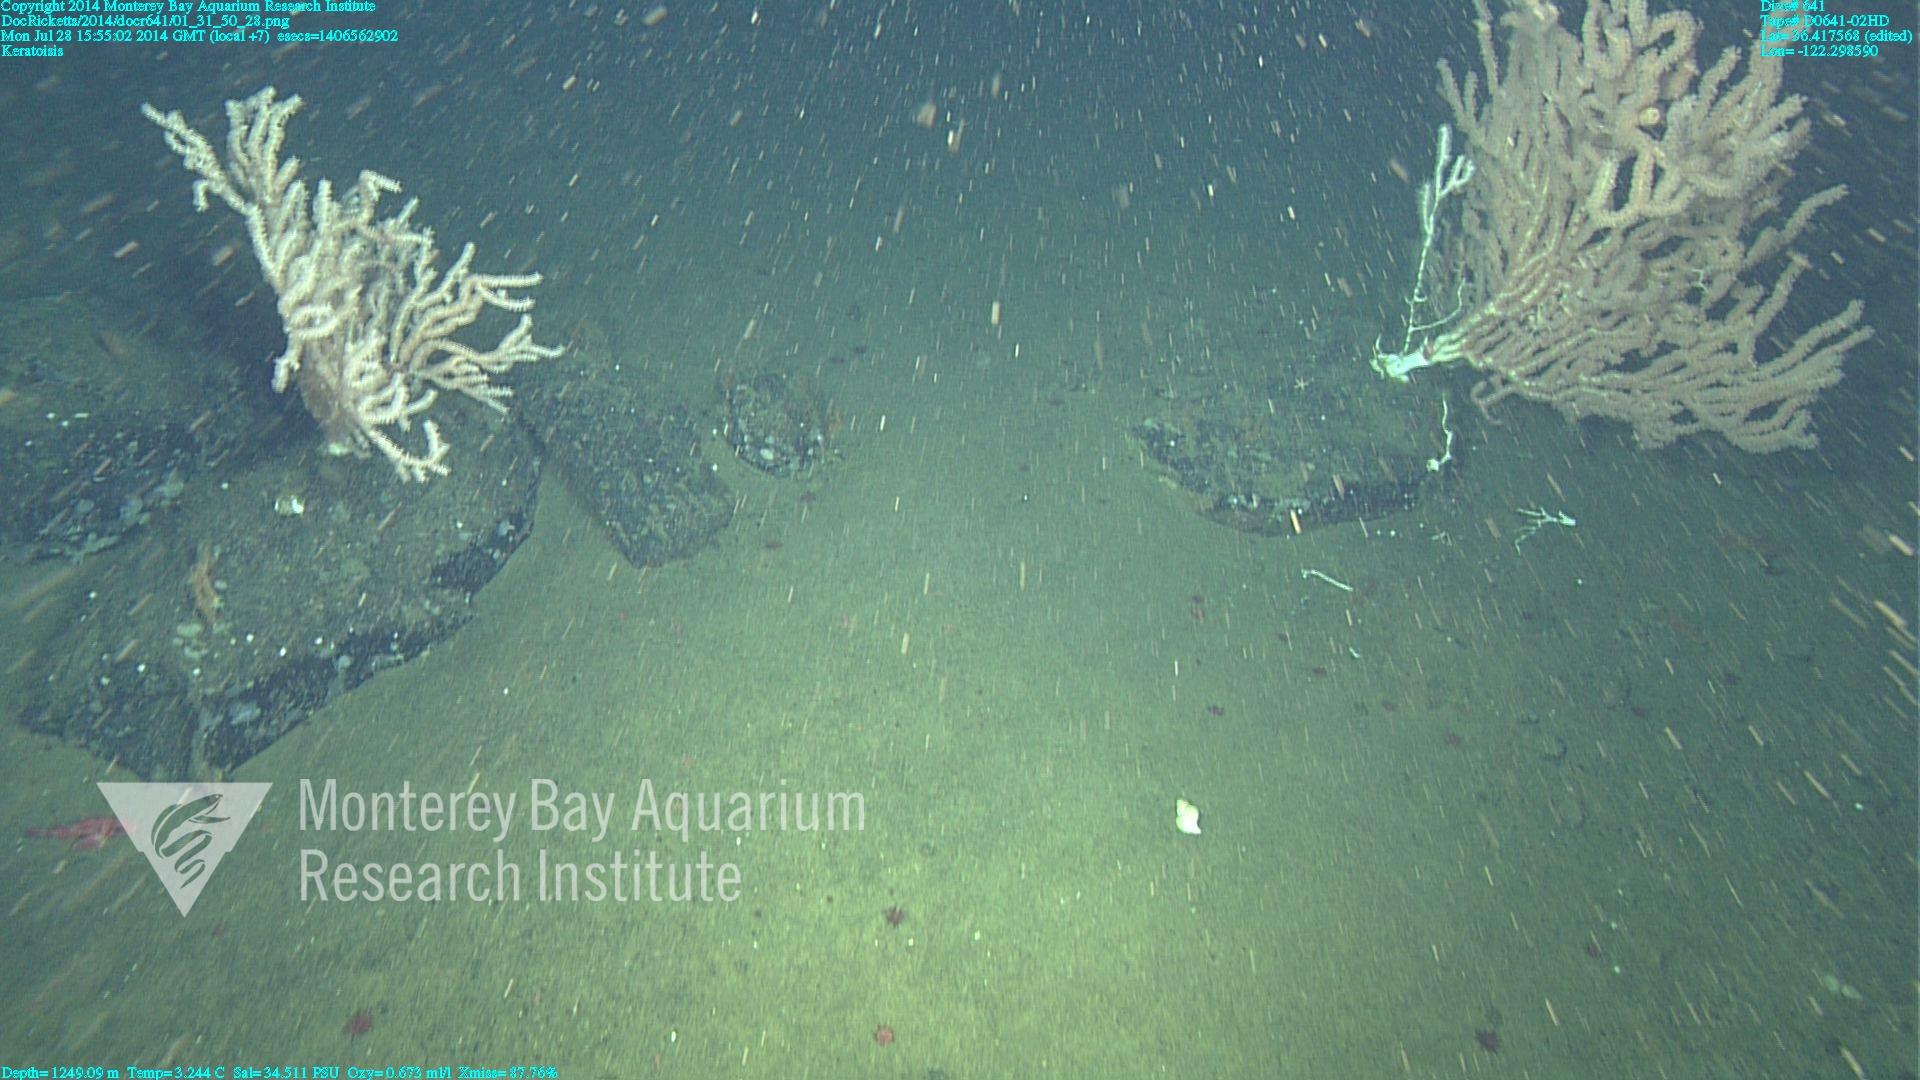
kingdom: Animalia
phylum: Cnidaria
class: Anthozoa
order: Scleralcyonacea
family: Keratoisididae
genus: Keratoisis
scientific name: Keratoisis
